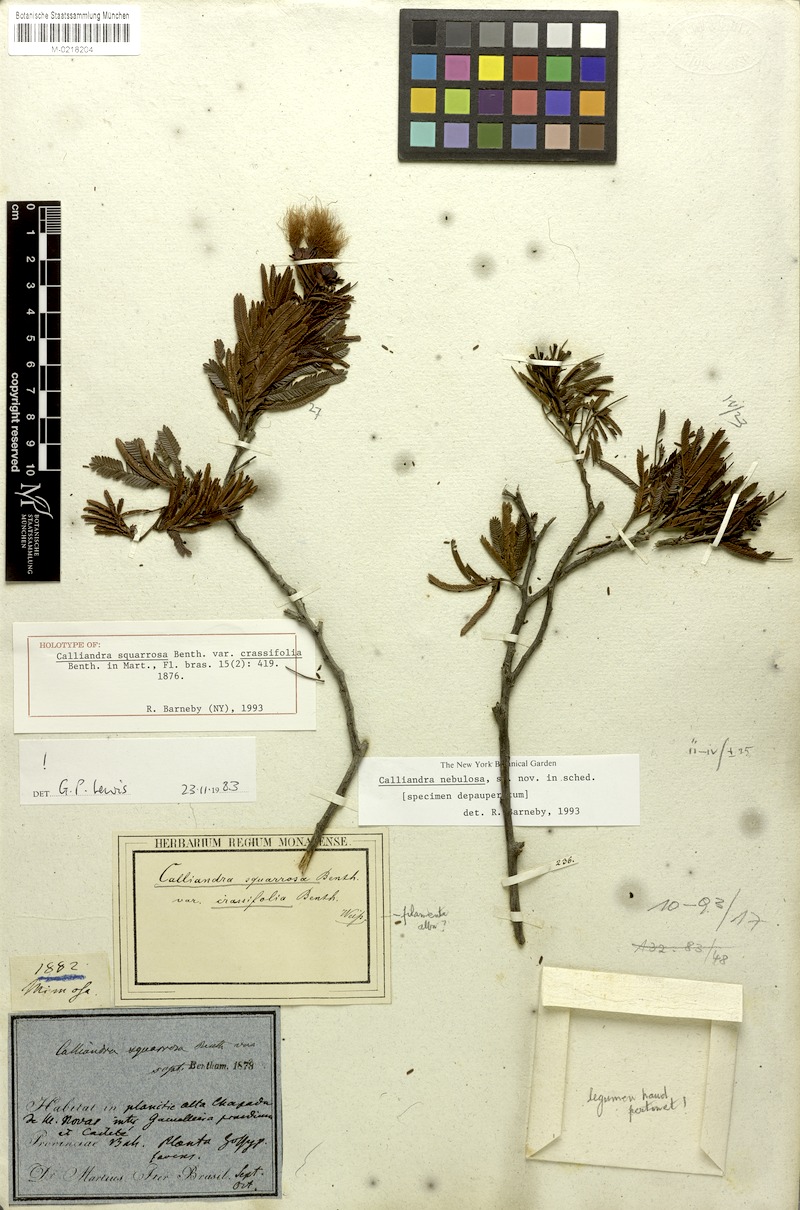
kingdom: Plantae
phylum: Tracheophyta
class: Magnoliopsida
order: Fabales
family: Fabaceae
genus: Calliandra
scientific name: Calliandra squarrosa
